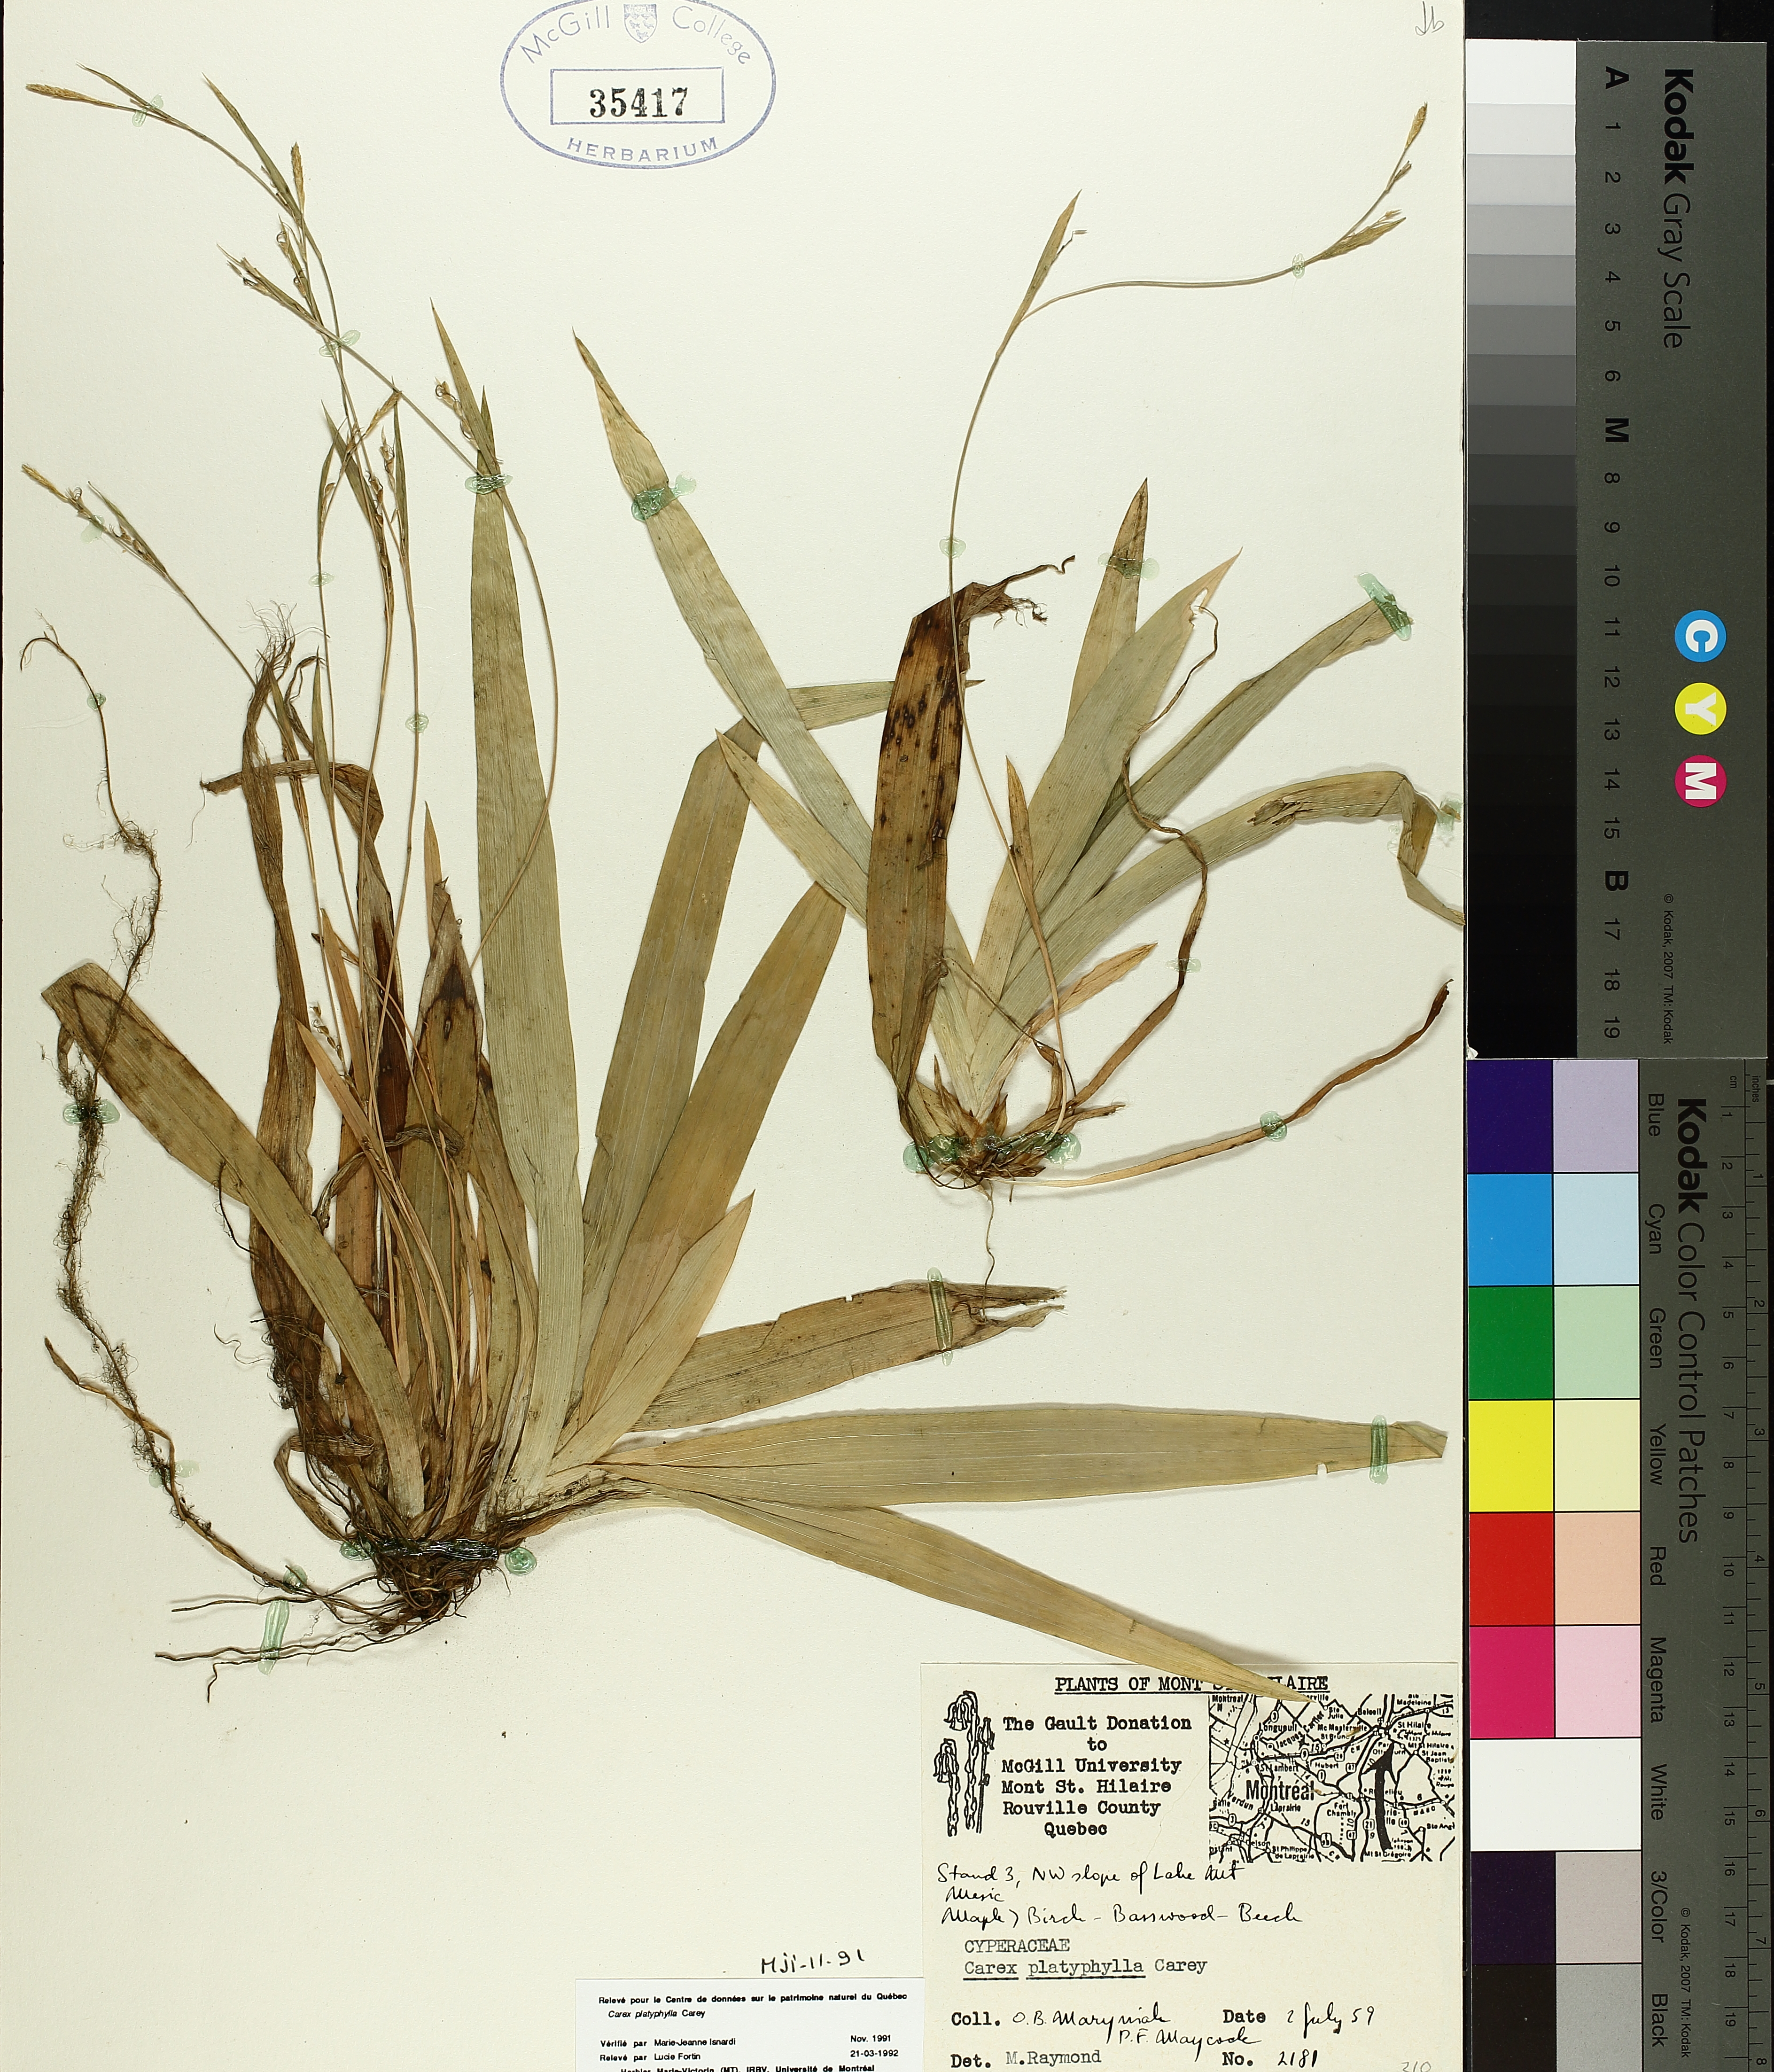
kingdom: Plantae
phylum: Tracheophyta
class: Liliopsida
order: Poales
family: Cyperaceae
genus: Carex
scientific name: Carex platyphylla
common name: Broad-leaved sedge
